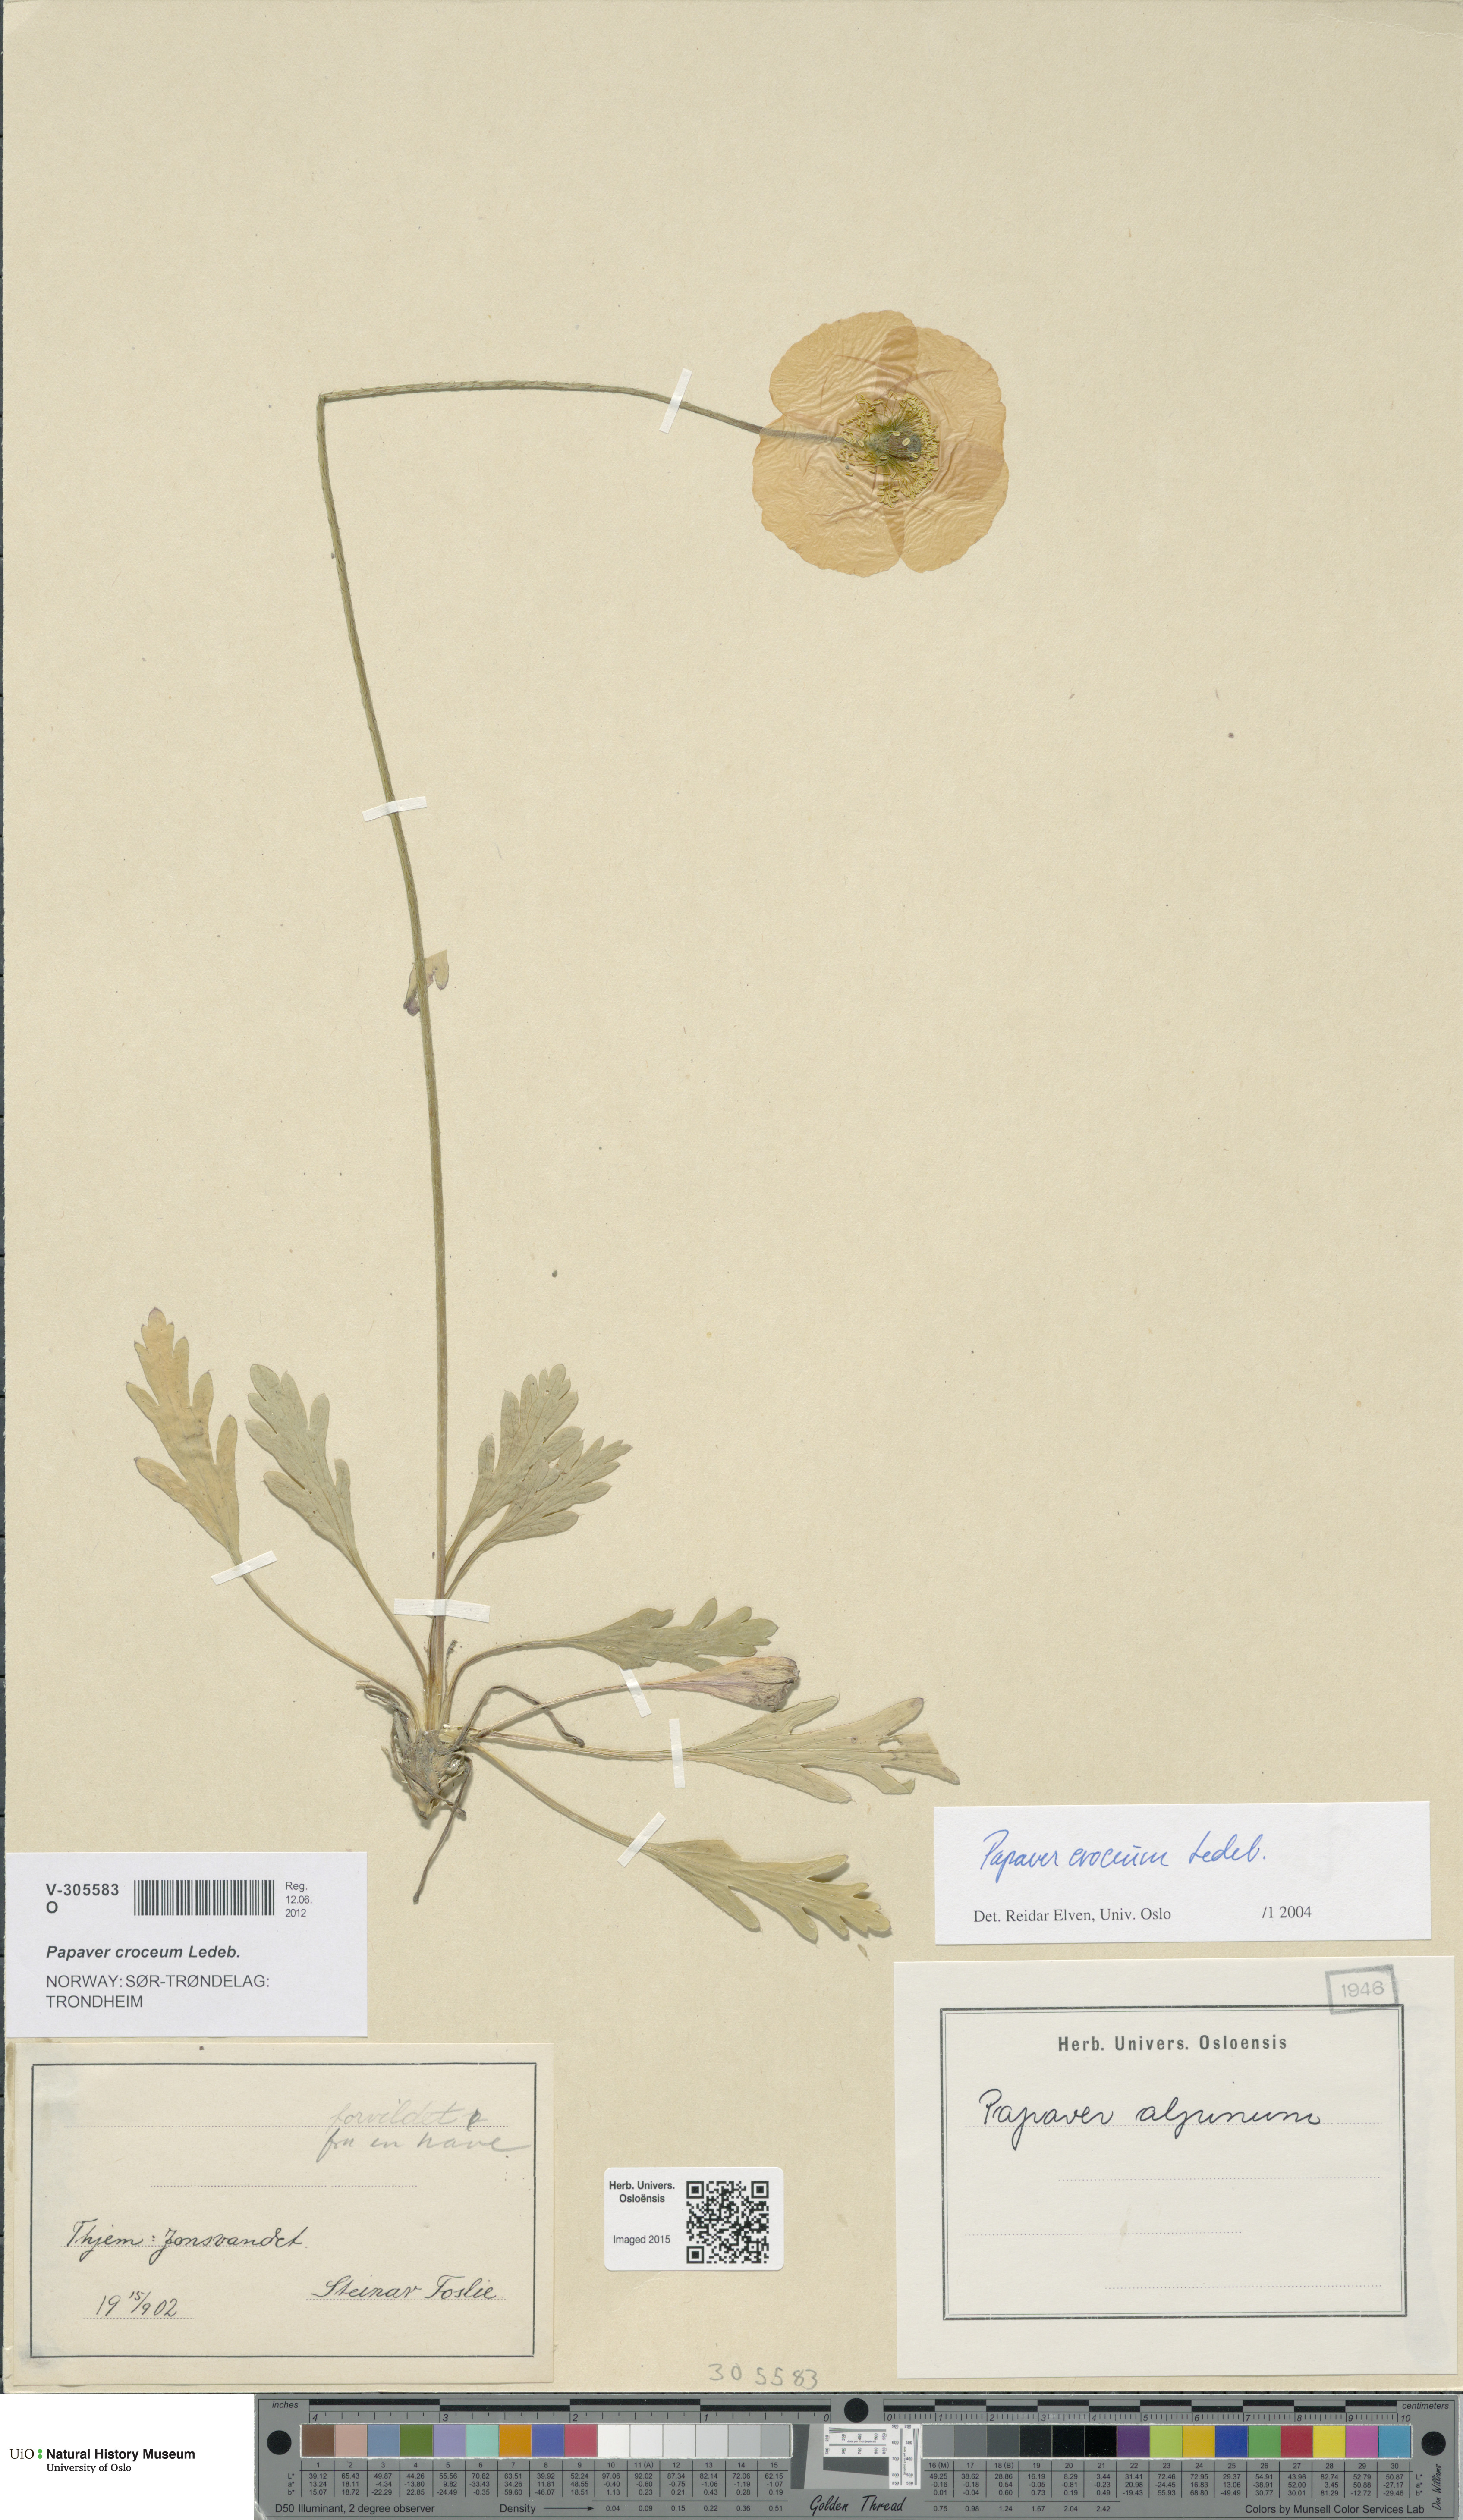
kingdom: Plantae
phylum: Tracheophyta
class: Magnoliopsida
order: Ranunculales
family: Papaveraceae
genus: Papaver
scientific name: Papaver croceum
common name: Siberian poppy
